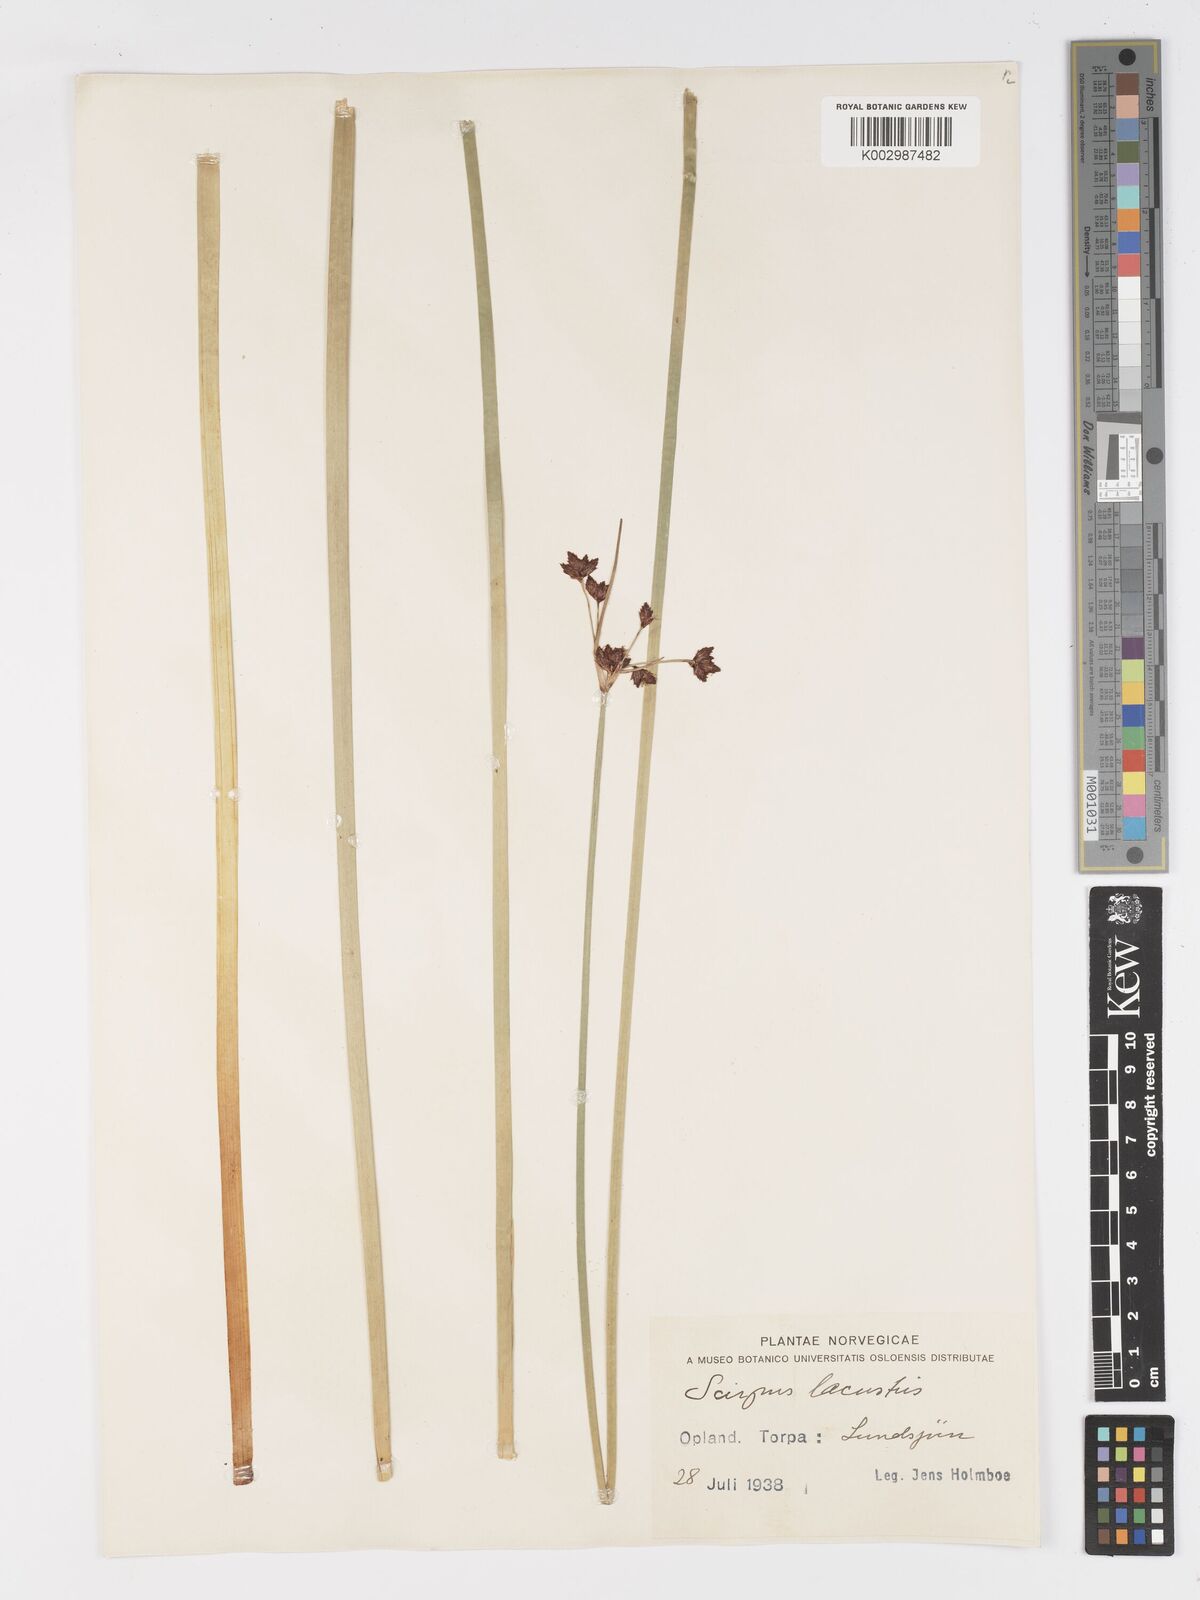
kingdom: Plantae
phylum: Tracheophyta
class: Liliopsida
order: Poales
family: Cyperaceae
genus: Schoenoplectus
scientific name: Schoenoplectus lacustris
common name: Common club-rush
